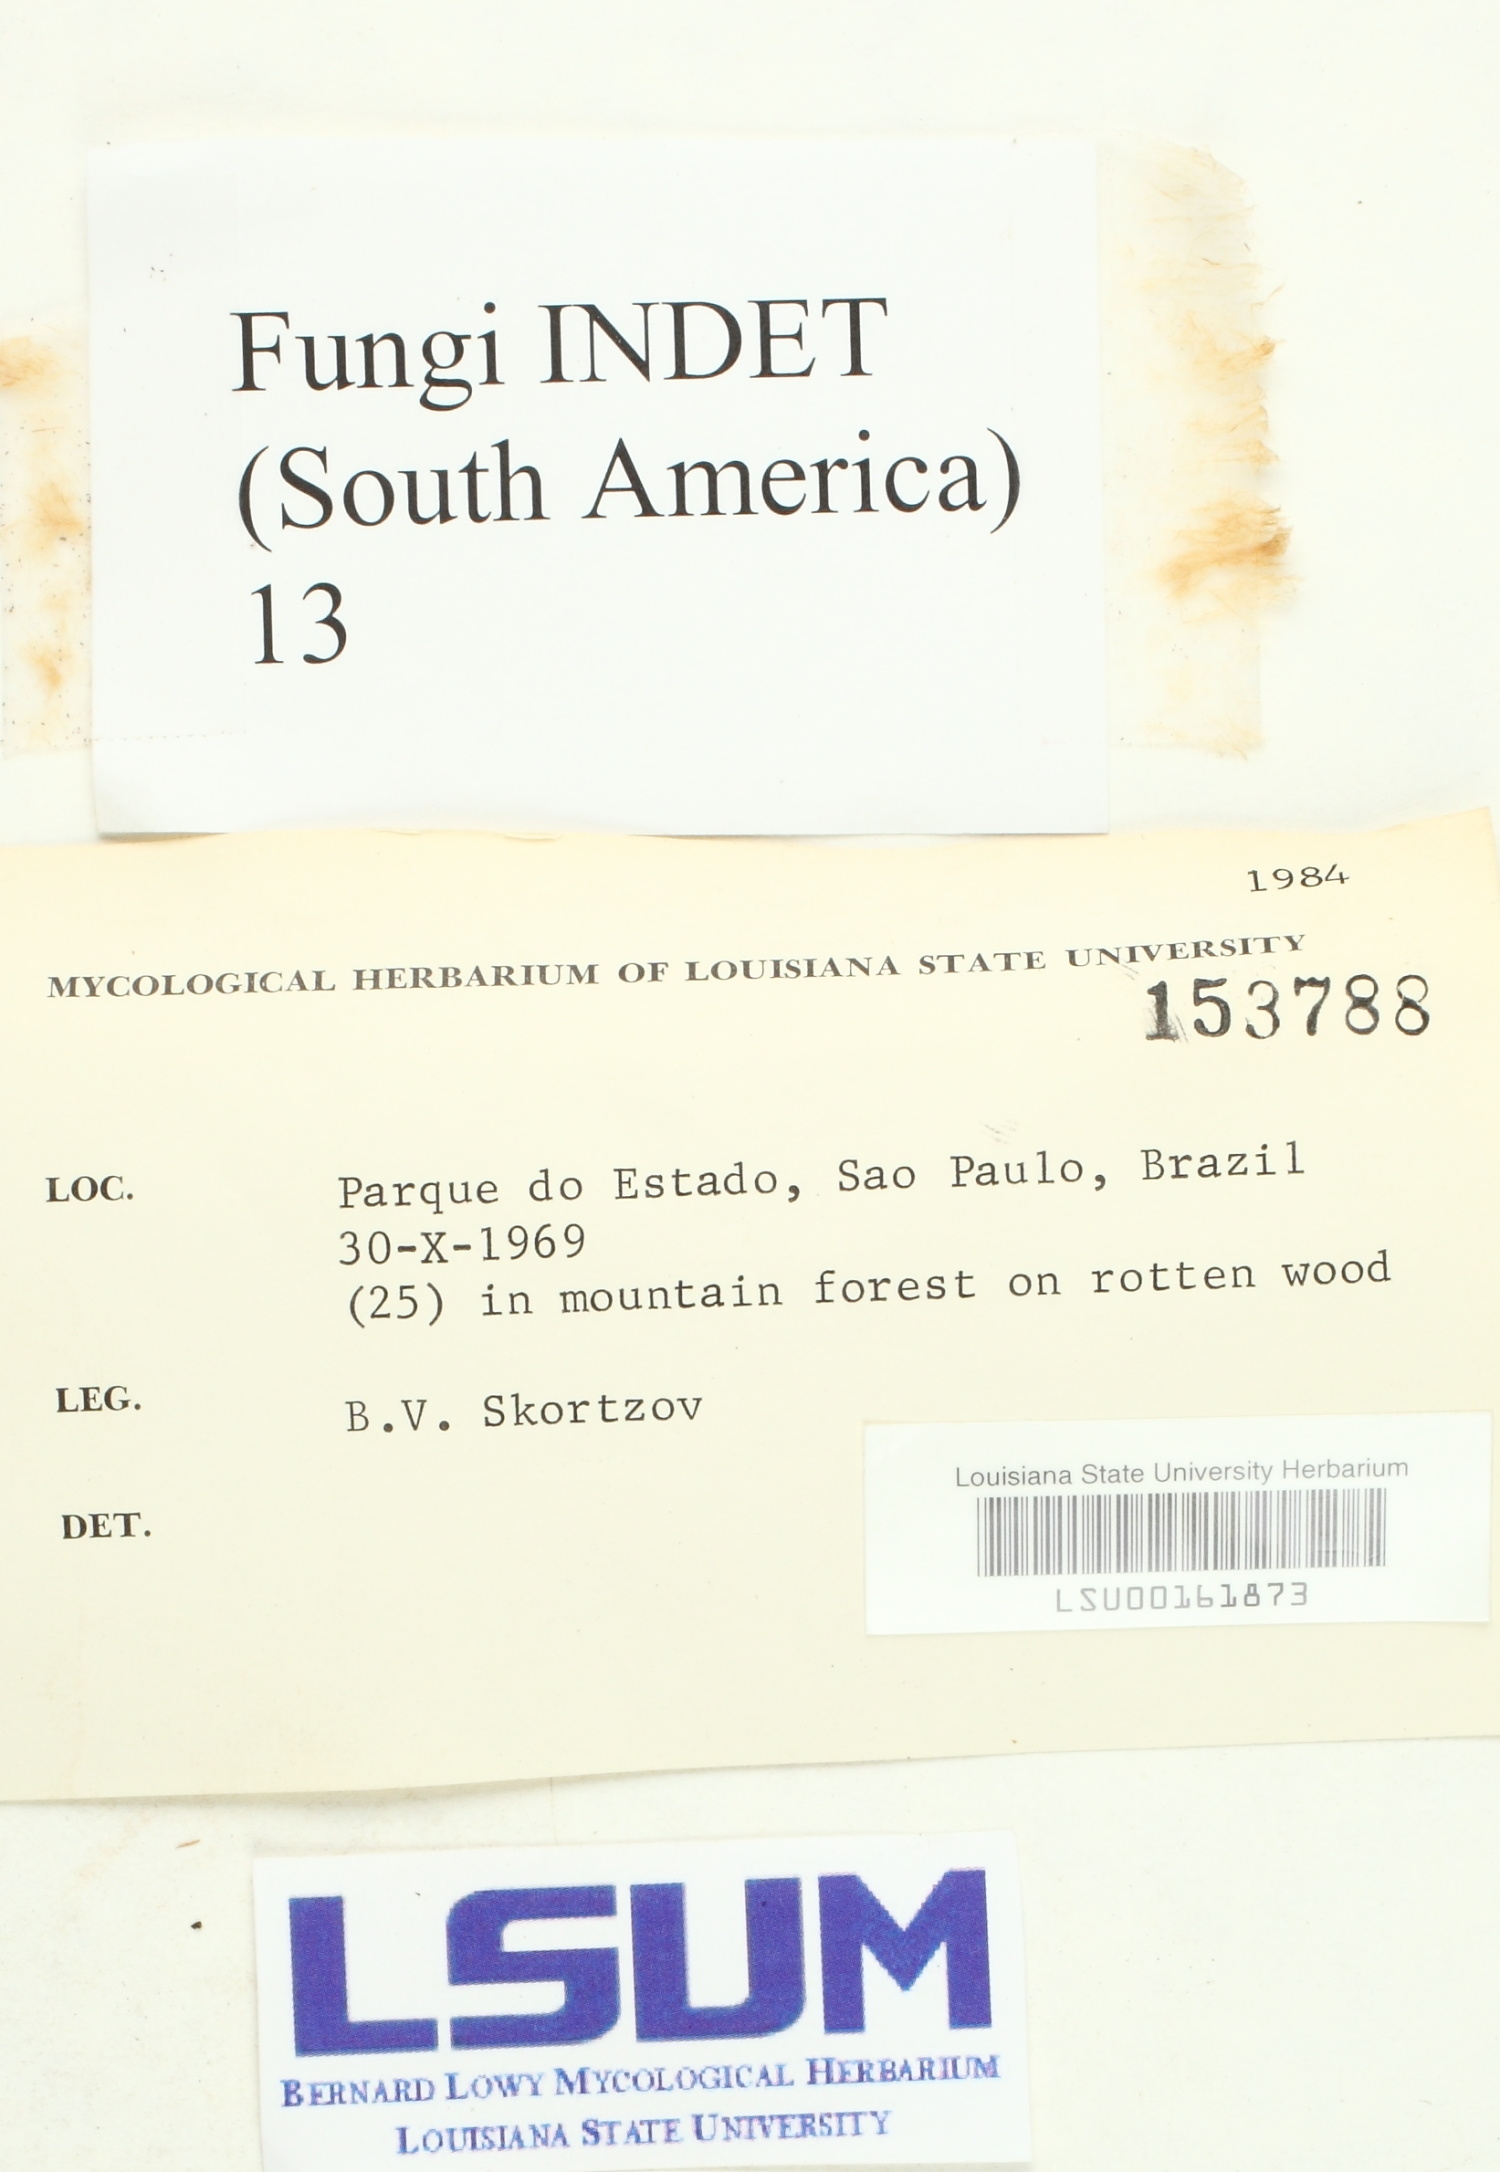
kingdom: Fungi
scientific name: Fungi
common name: Fungi
